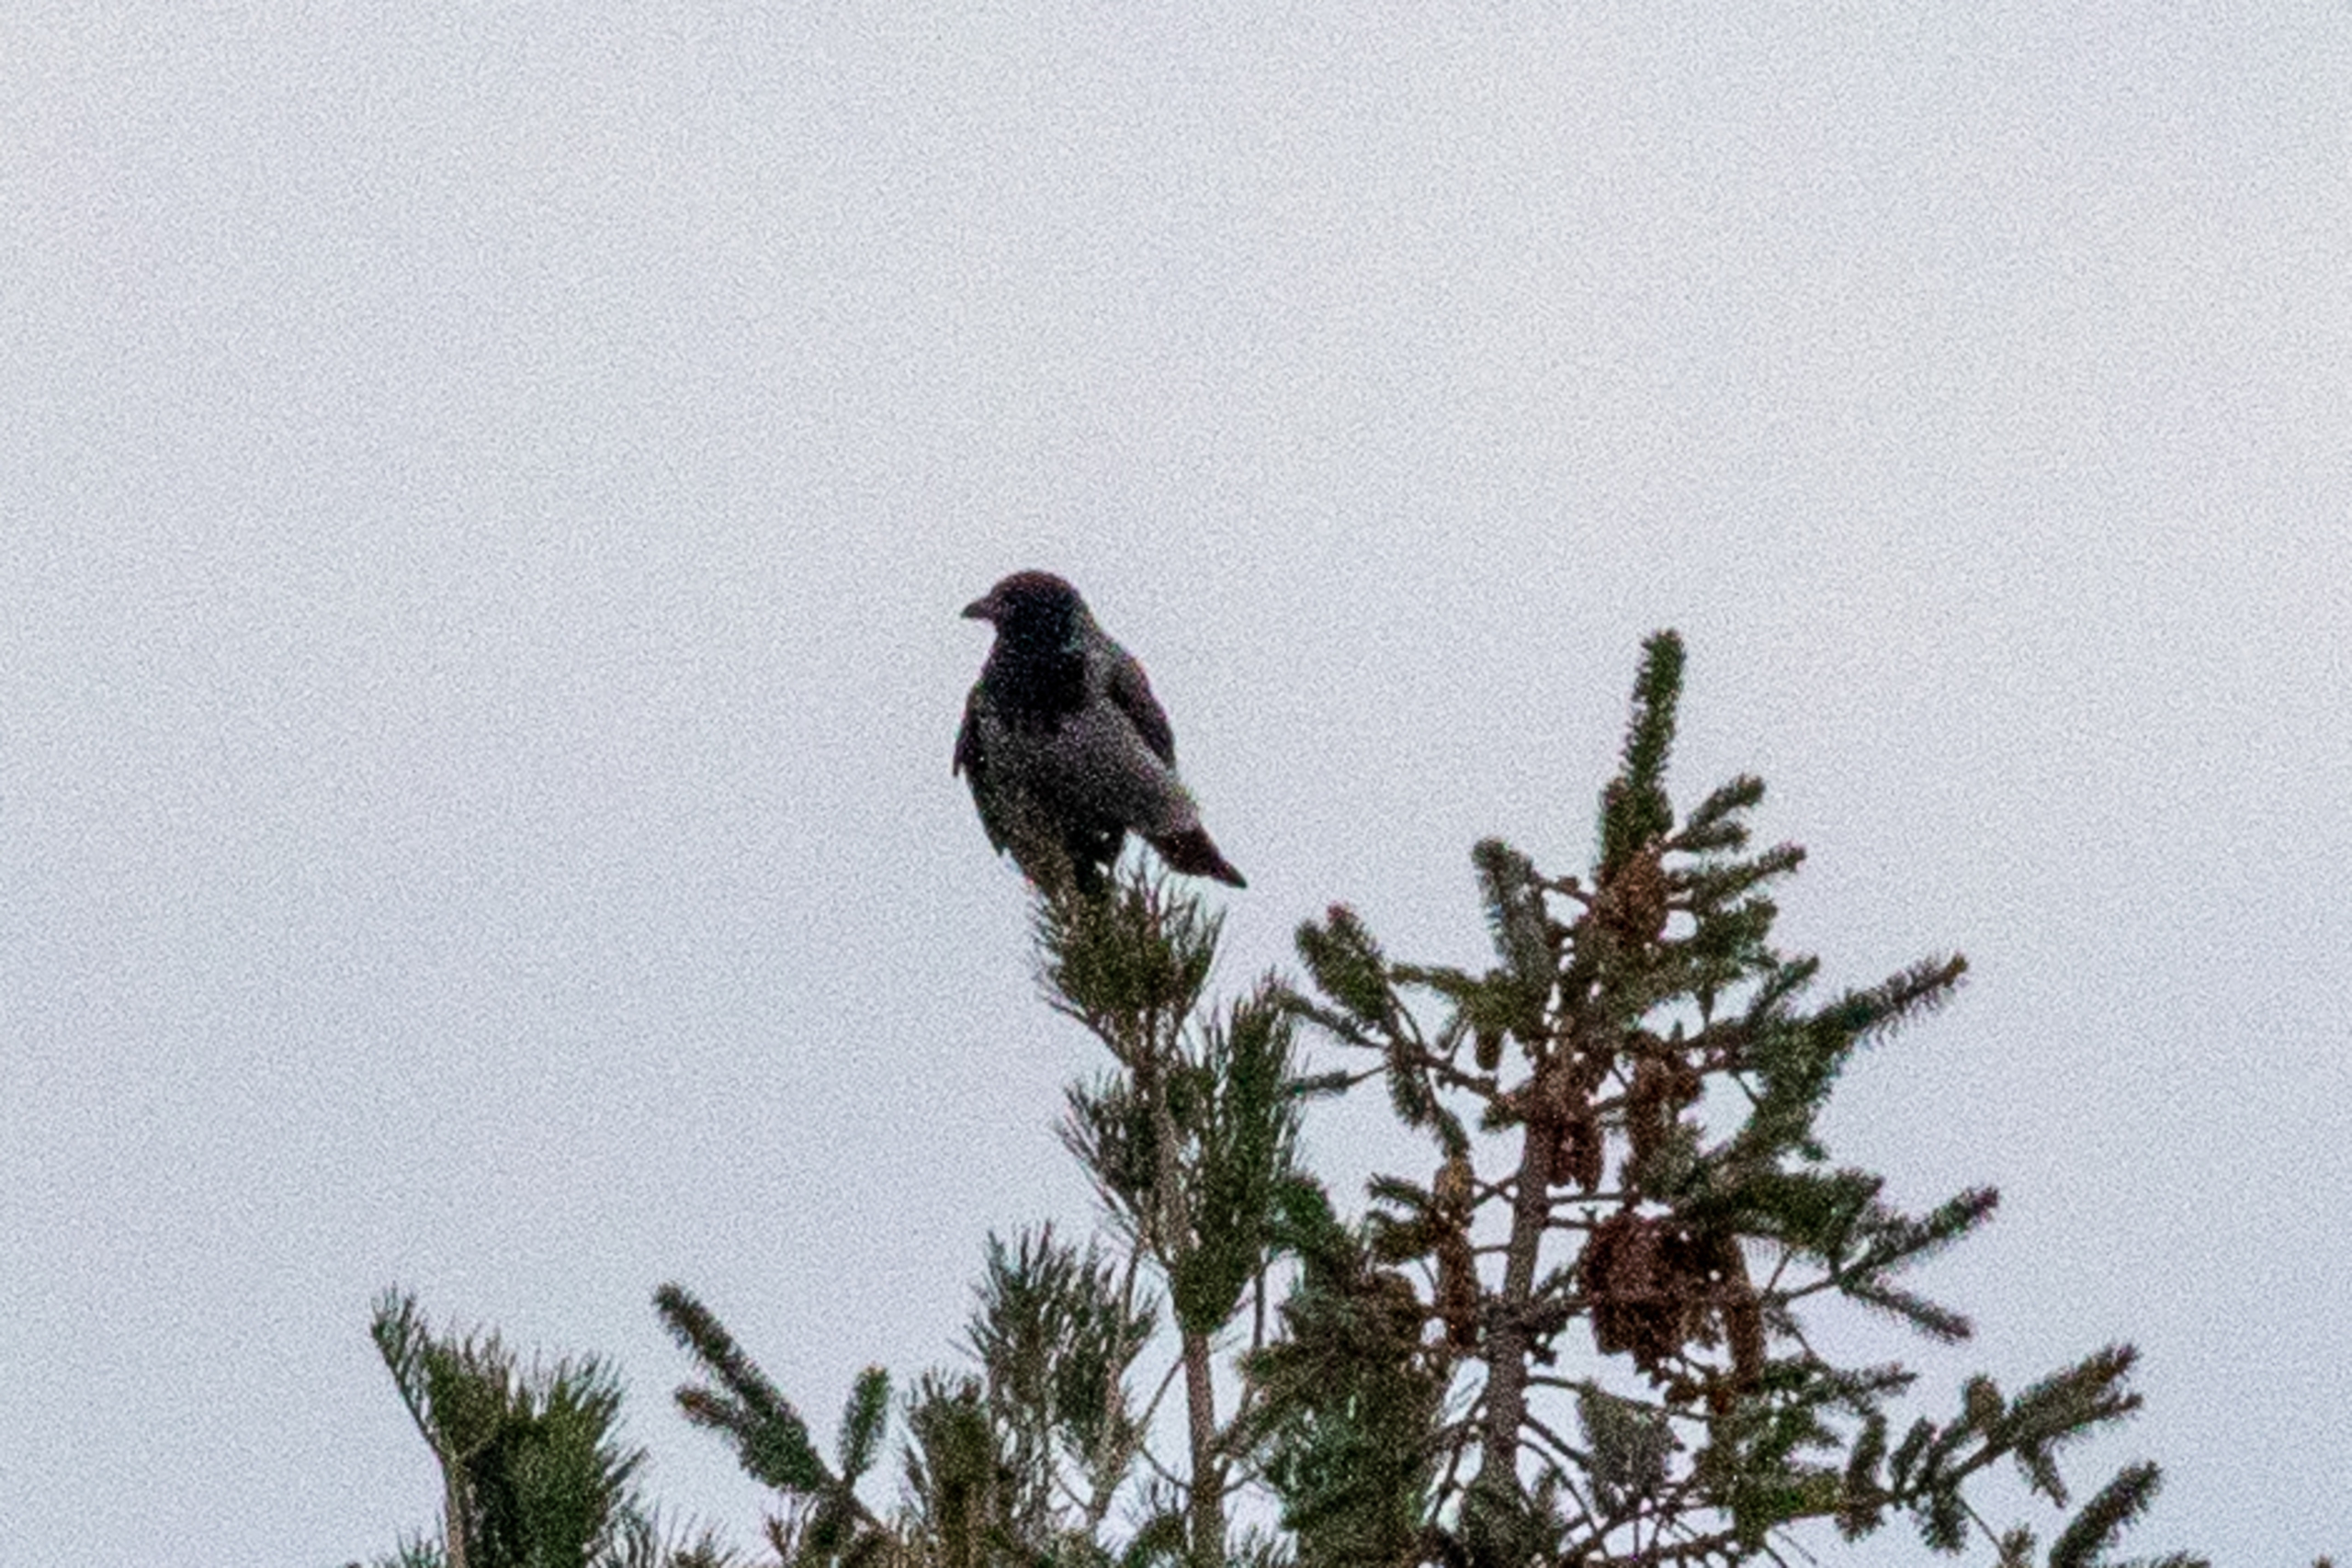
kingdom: Animalia
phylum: Chordata
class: Aves
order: Passeriformes
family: Corvidae
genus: Corvus
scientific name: Corvus cornix
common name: Gråkrage
